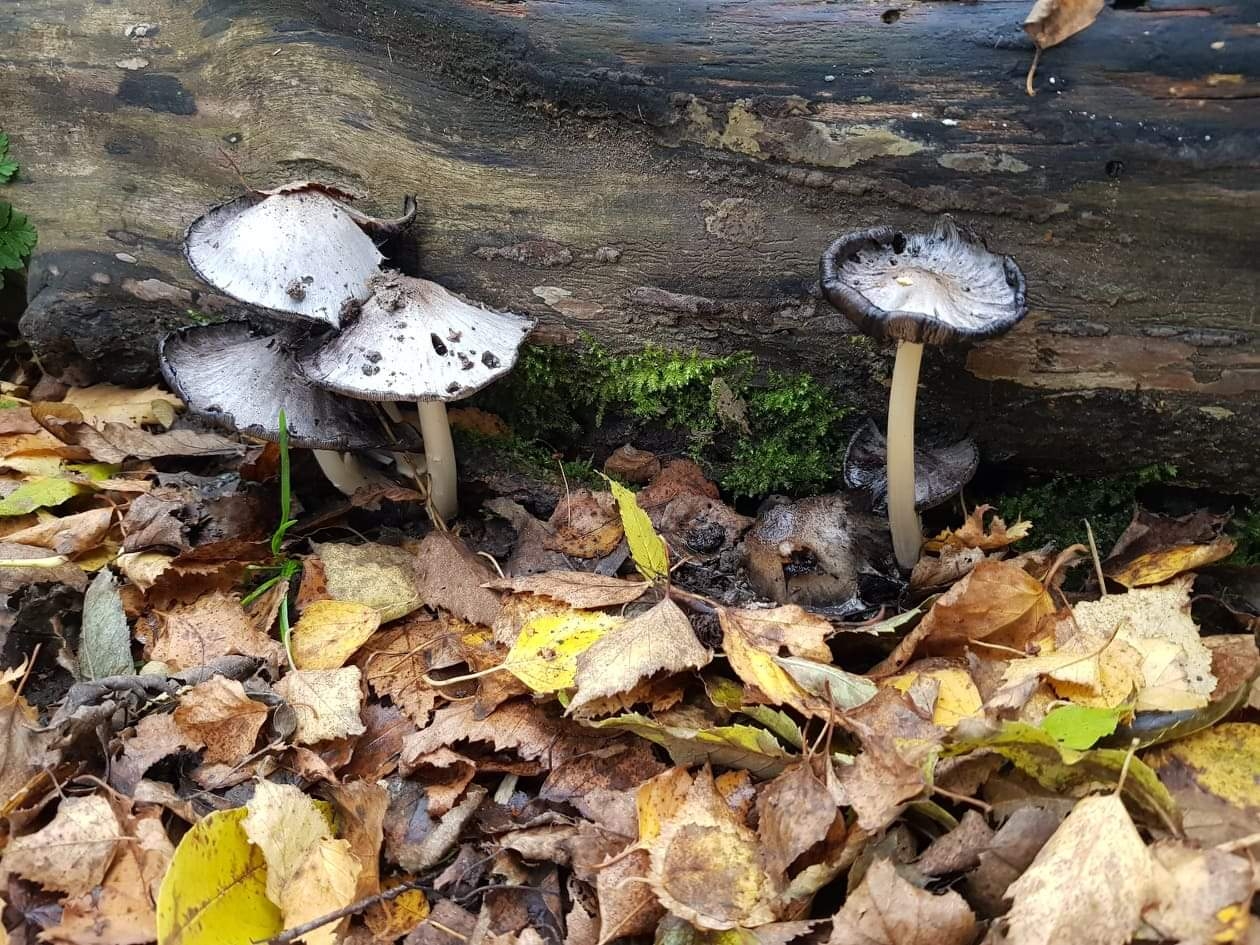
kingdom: Fungi
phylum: Basidiomycota
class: Agaricomycetes
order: Agaricales
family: Psathyrellaceae
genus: Coprinopsis
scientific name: Coprinopsis atramentaria
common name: almindelig blækhat
